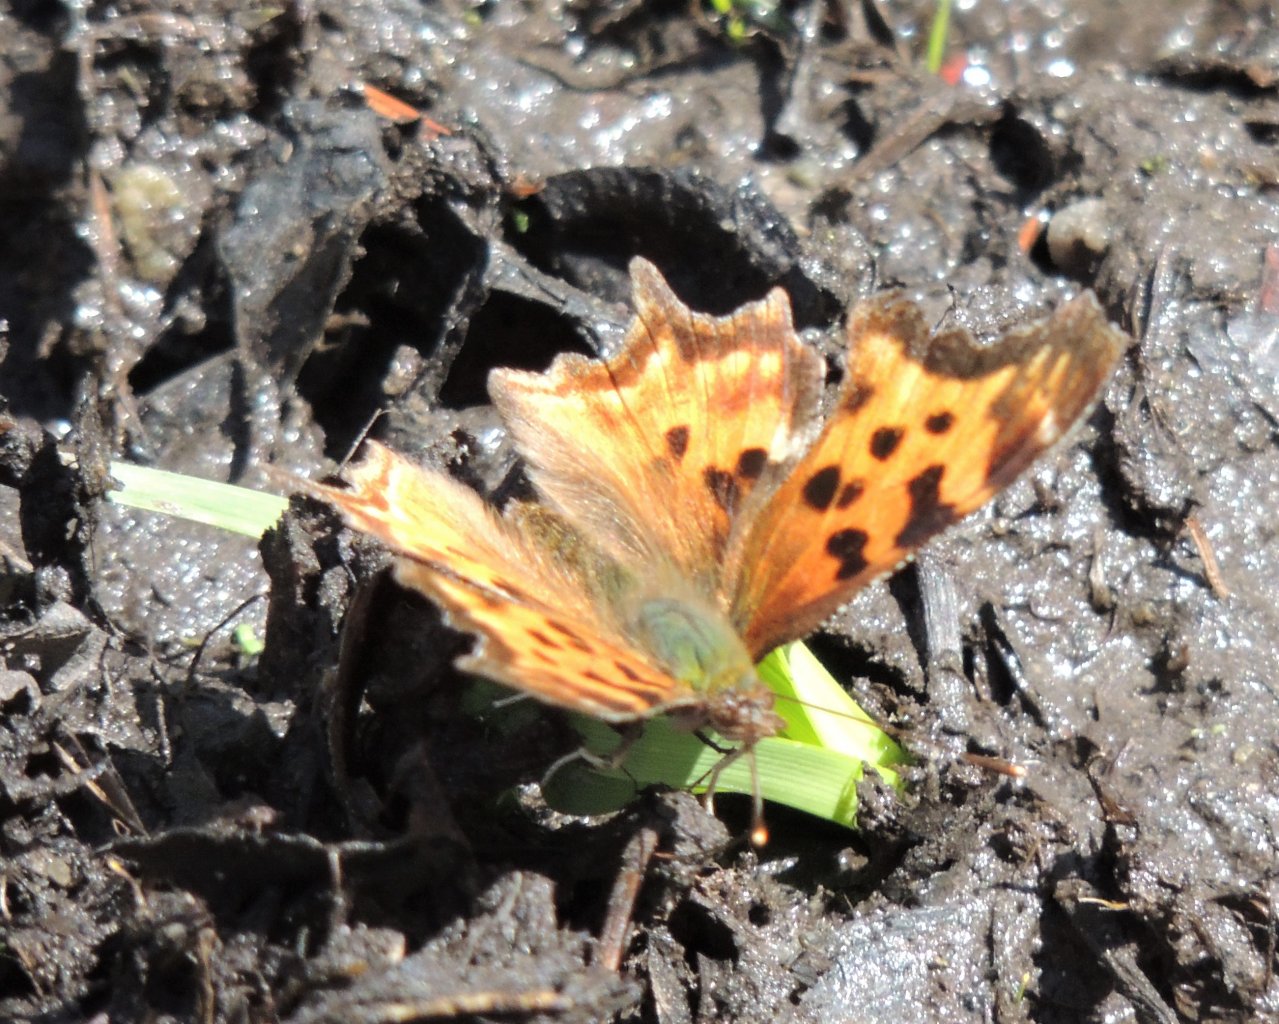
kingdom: Animalia
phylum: Arthropoda
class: Insecta
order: Lepidoptera
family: Nymphalidae
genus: Polygonia
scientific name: Polygonia satyrus
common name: Satyr Comma
